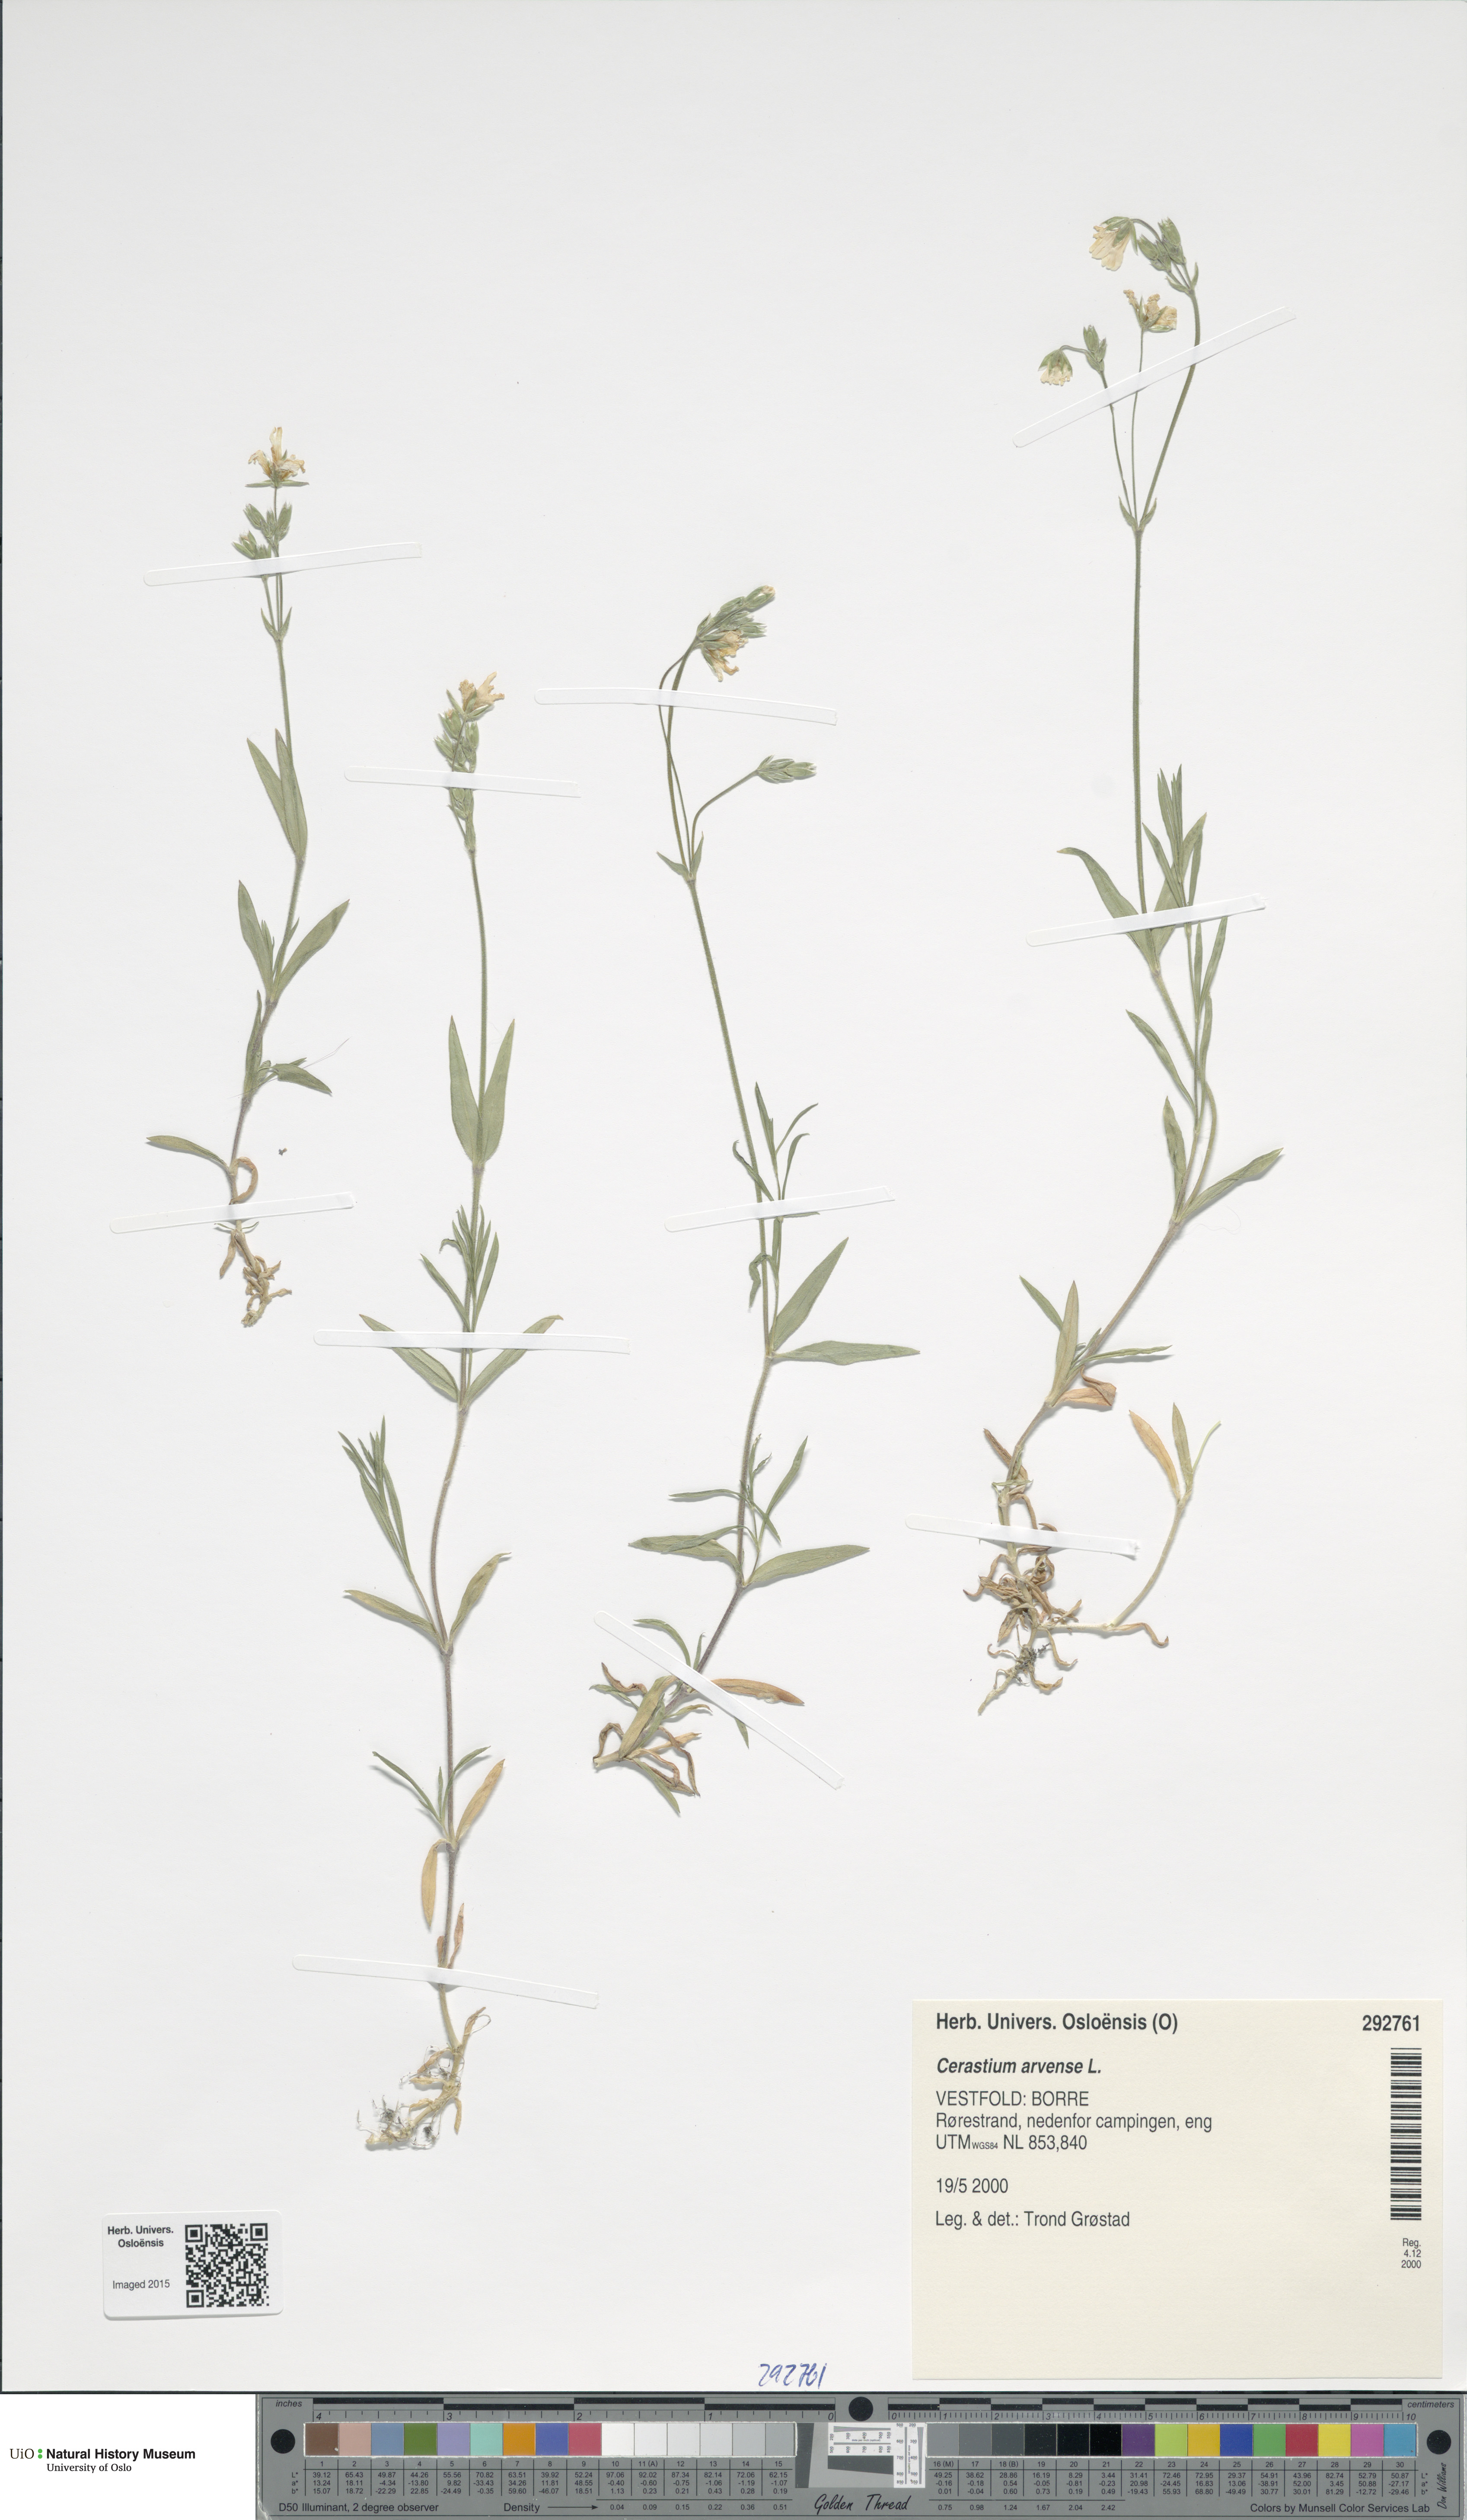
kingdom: Plantae
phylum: Tracheophyta
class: Magnoliopsida
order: Caryophyllales
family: Caryophyllaceae
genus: Cerastium
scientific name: Cerastium arvense
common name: Field mouse-ear
